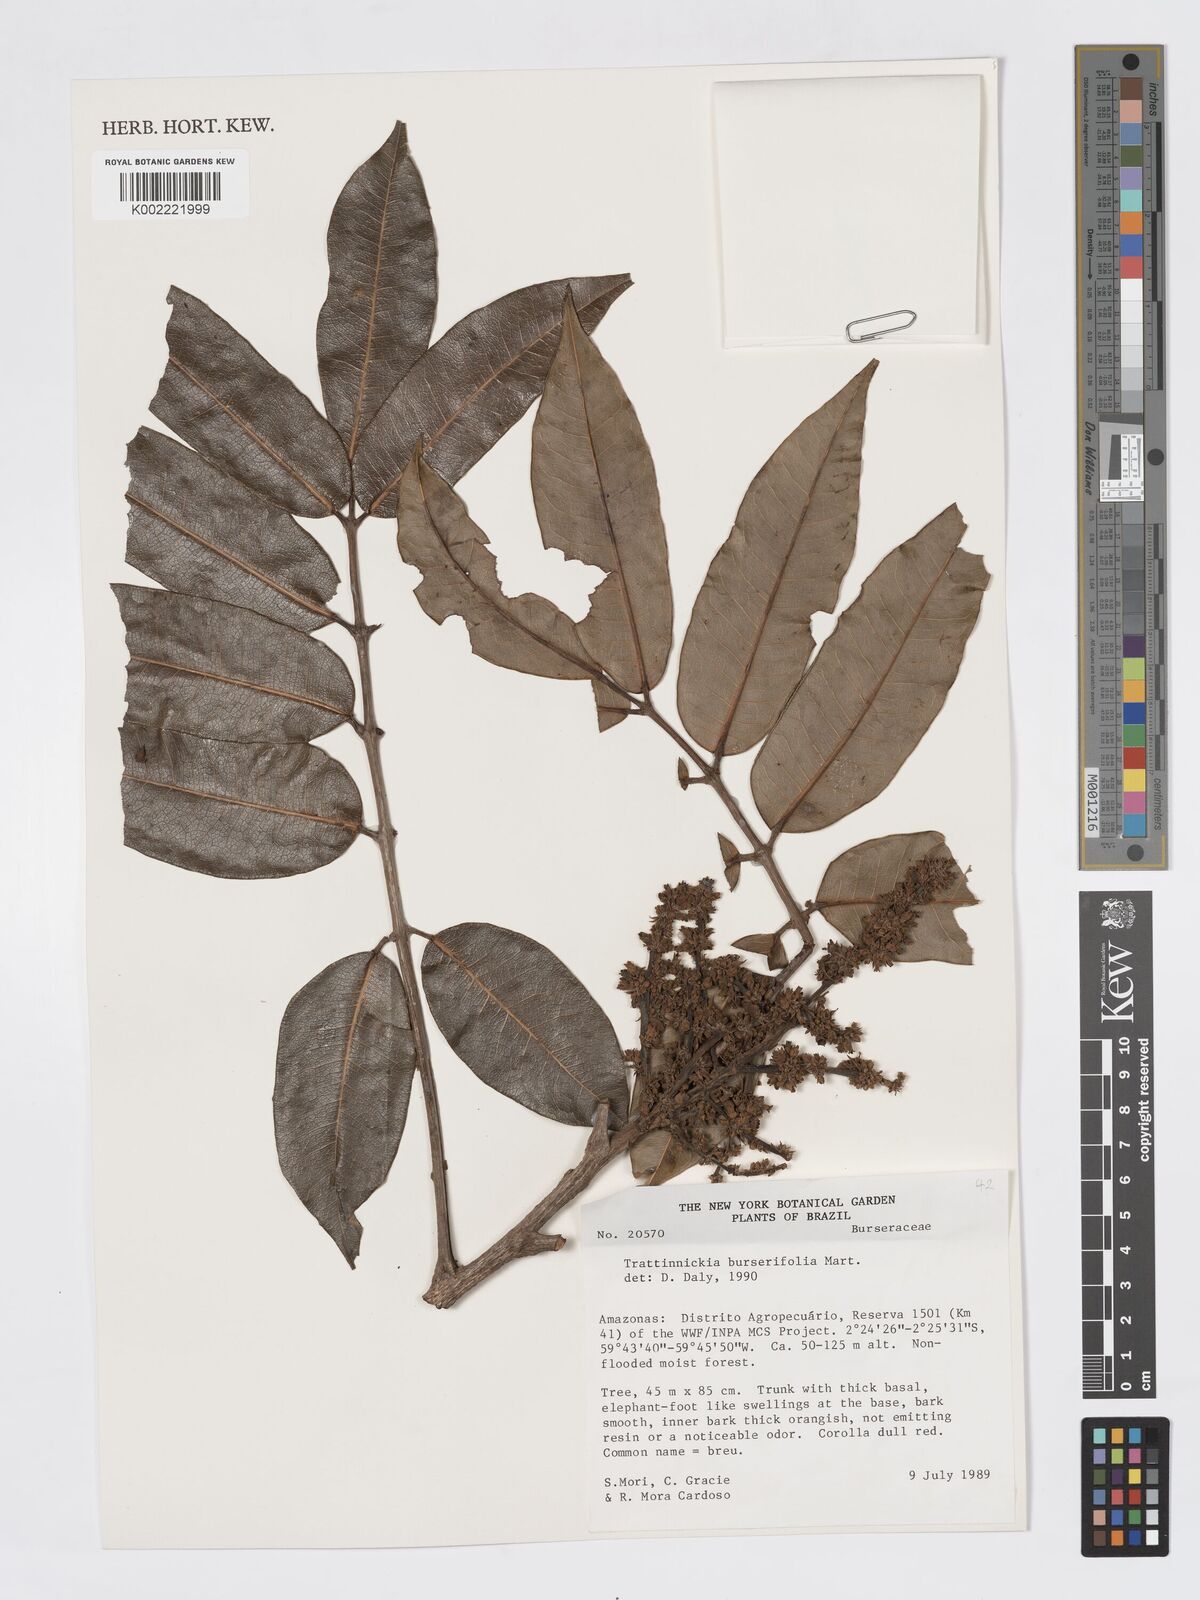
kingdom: Plantae
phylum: Tracheophyta
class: Magnoliopsida
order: Sapindales
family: Burseraceae
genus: Trattinnickia
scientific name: Trattinnickia burserifolia
